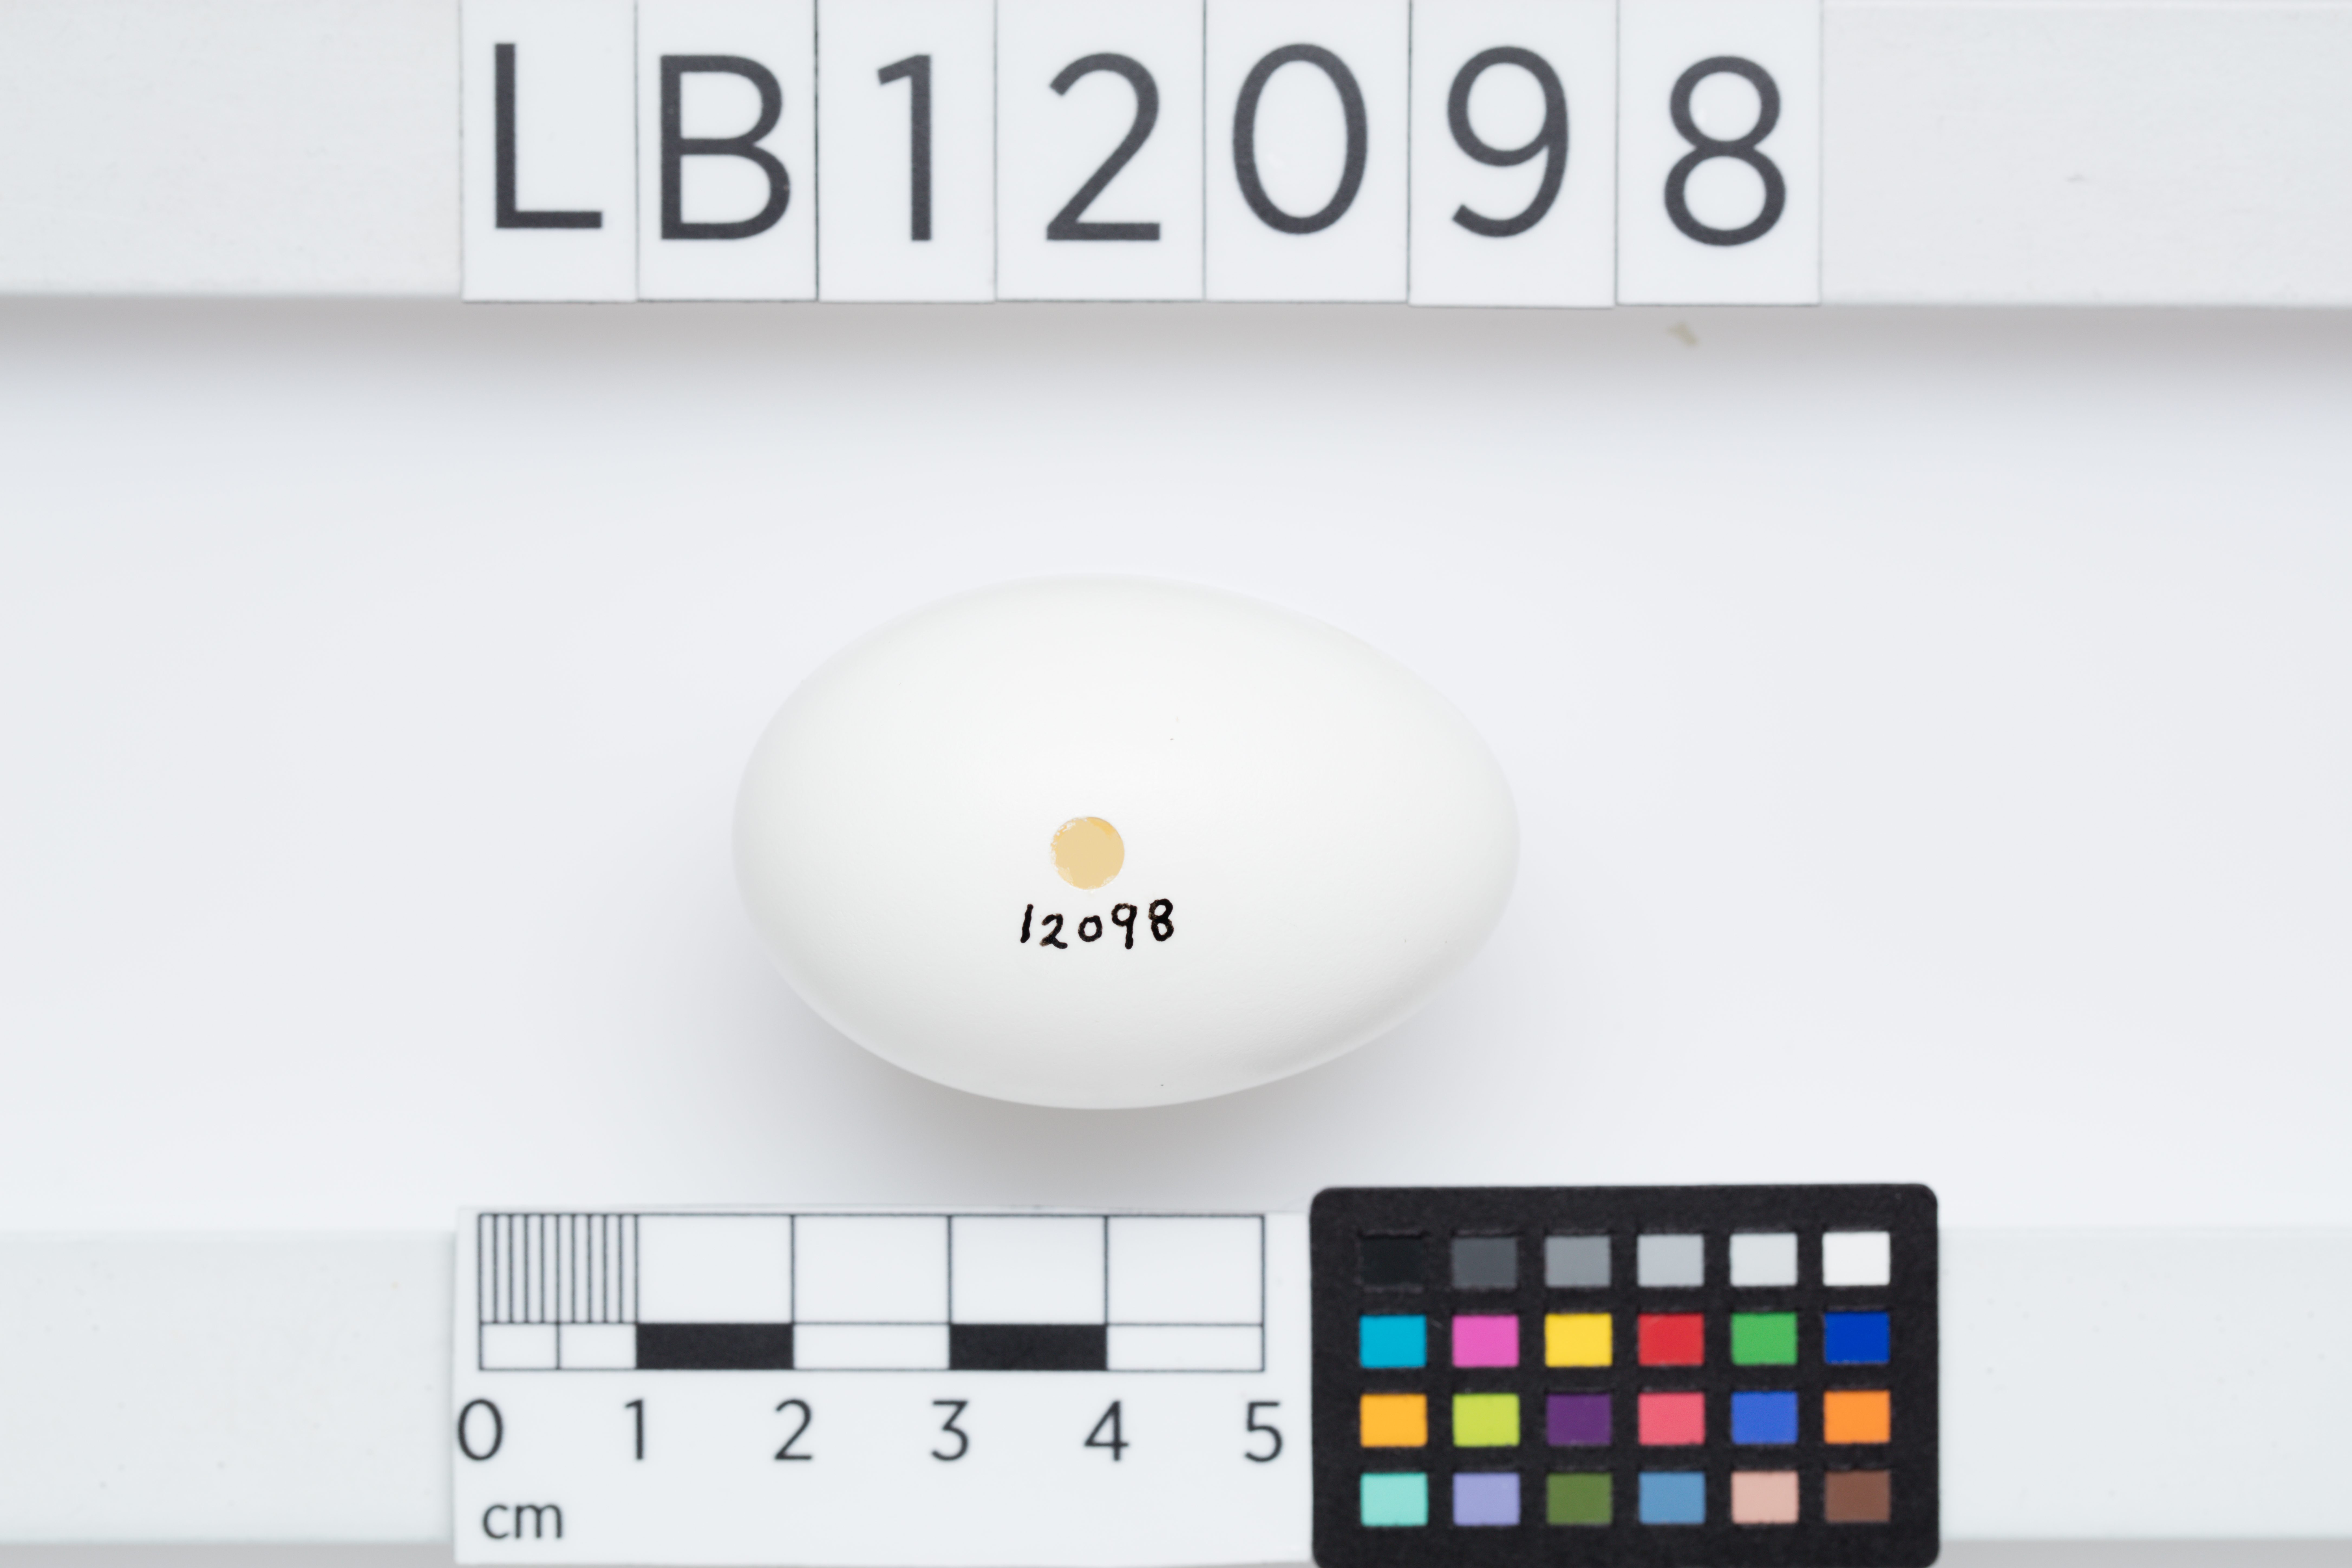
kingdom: Animalia
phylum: Chordata
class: Aves
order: Columbiformes
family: Columbidae
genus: Hemiphaga
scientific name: Hemiphaga novaeseelandiae
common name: New zealand pigeon
